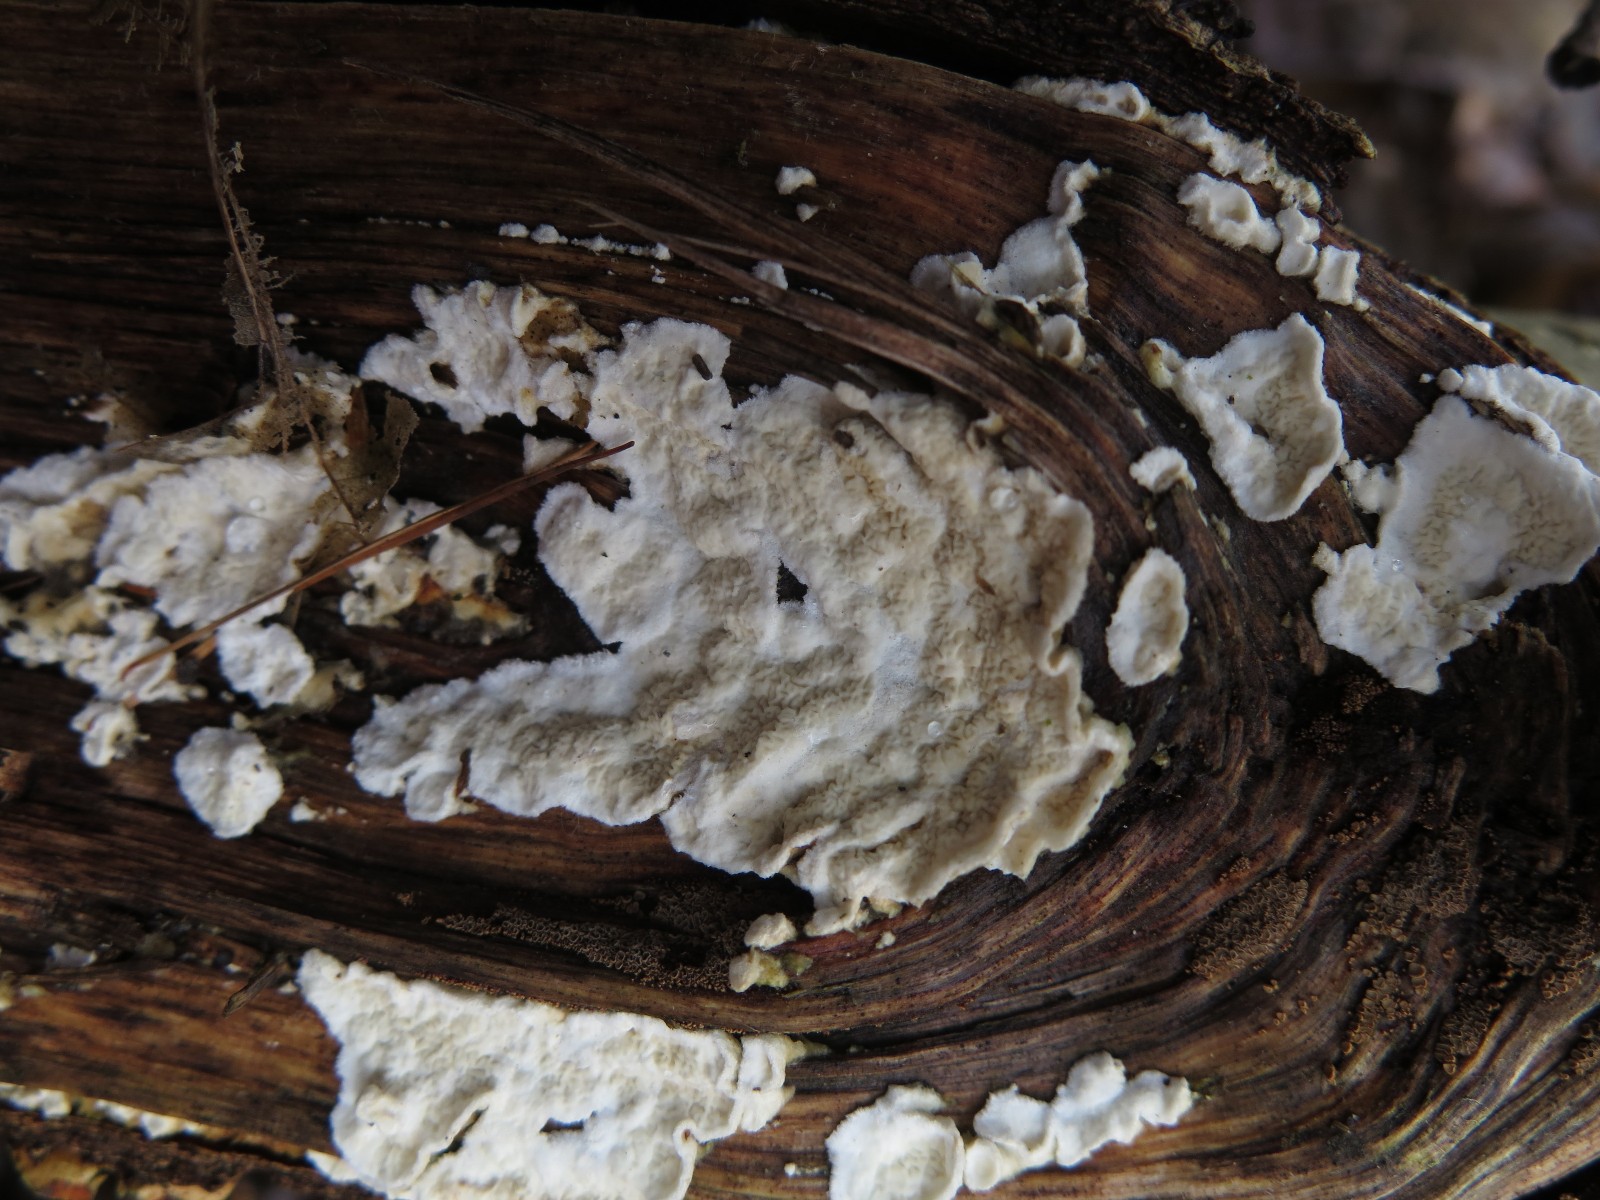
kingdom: Fungi
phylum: Basidiomycota
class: Agaricomycetes
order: Polyporales
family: Irpicaceae
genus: Byssomerulius
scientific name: Byssomerulius corium
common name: læder-åresvamp
